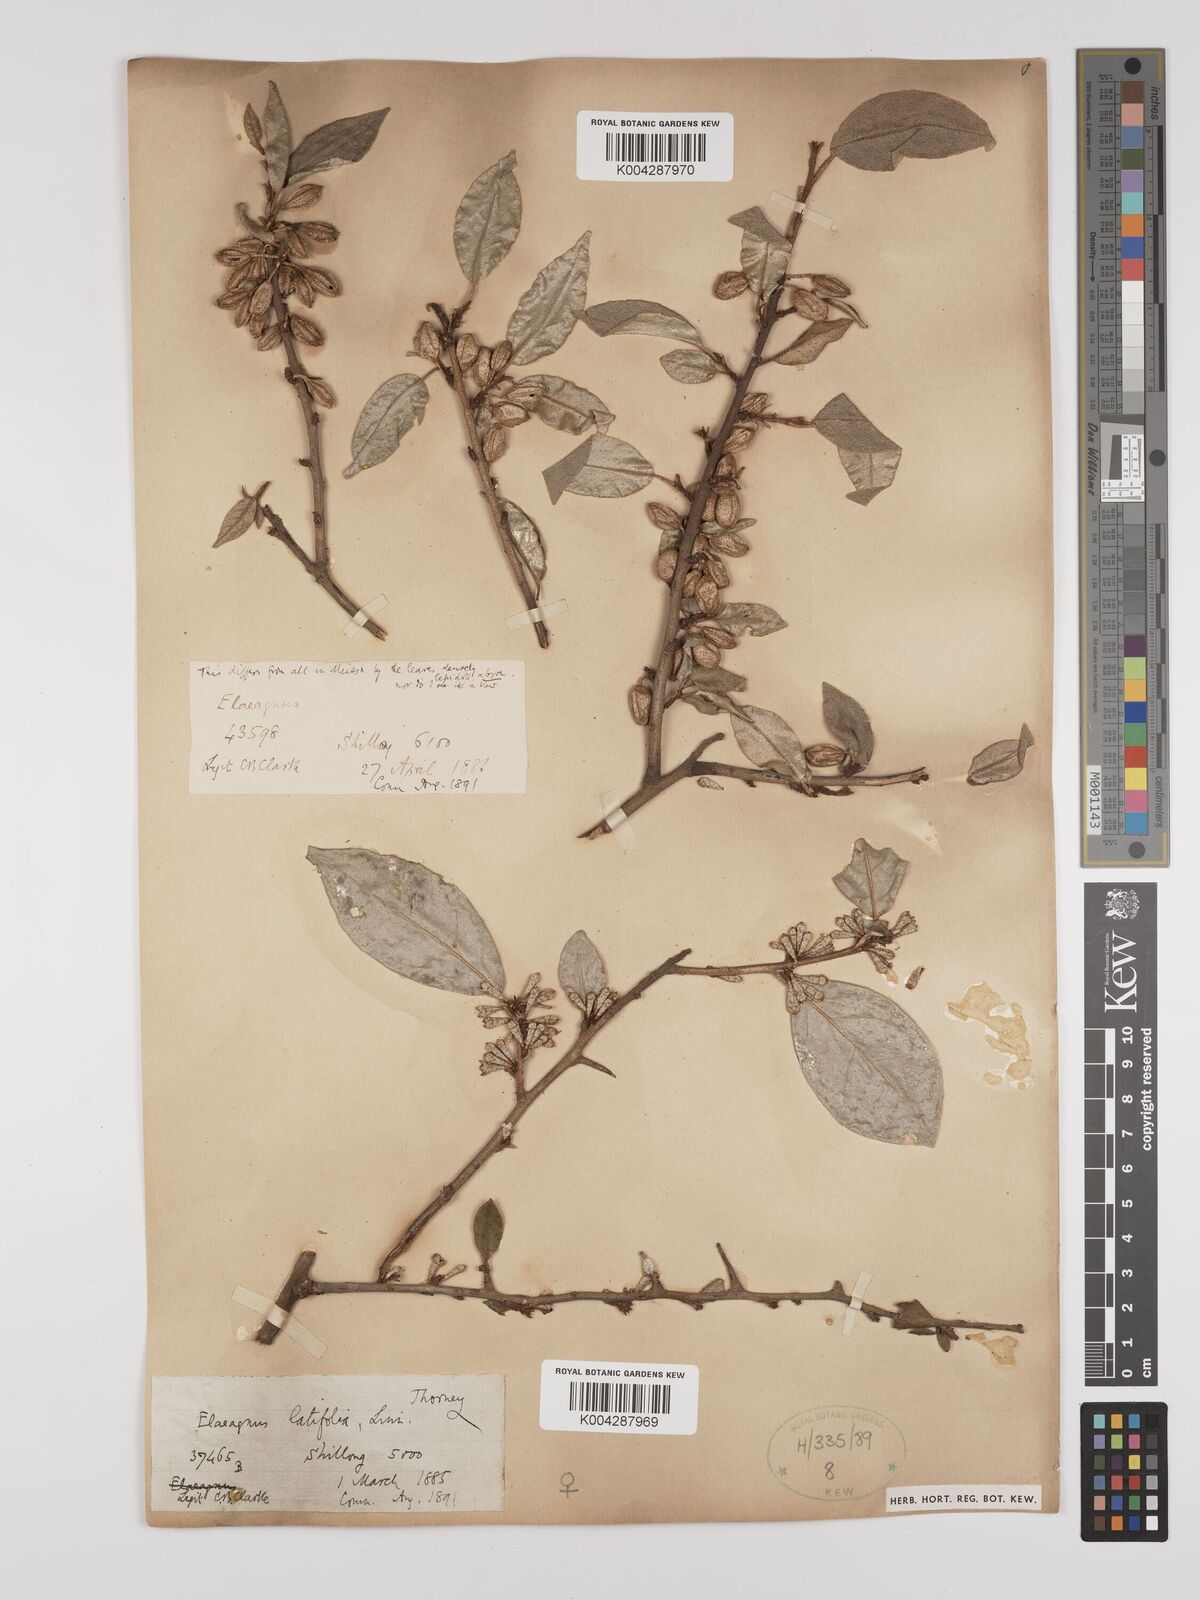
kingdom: Plantae
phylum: Tracheophyta
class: Magnoliopsida
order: Rosales
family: Elaeagnaceae
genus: Elaeagnus
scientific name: Elaeagnus latifolia
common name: Oleaster
